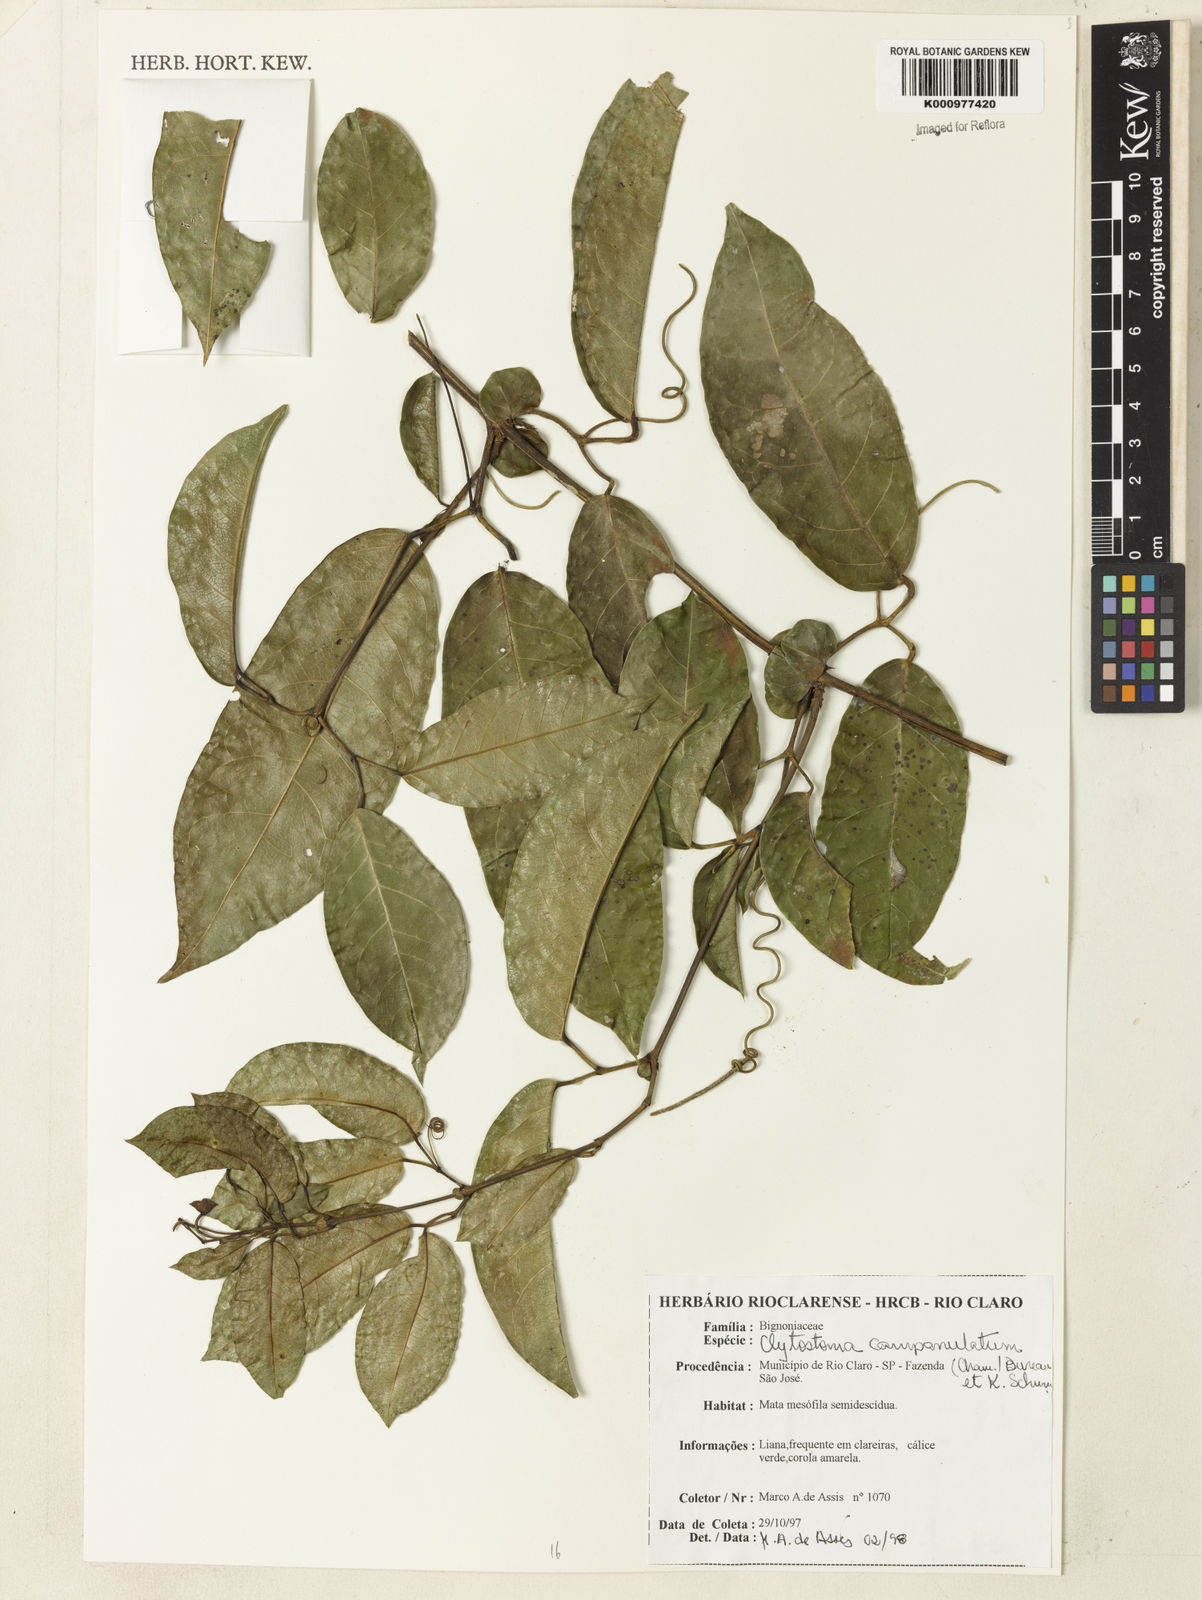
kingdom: Plantae
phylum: Tracheophyta
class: Magnoliopsida
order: Lamiales
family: Bignoniaceae
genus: Bignonia
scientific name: Bignonia campanulata
